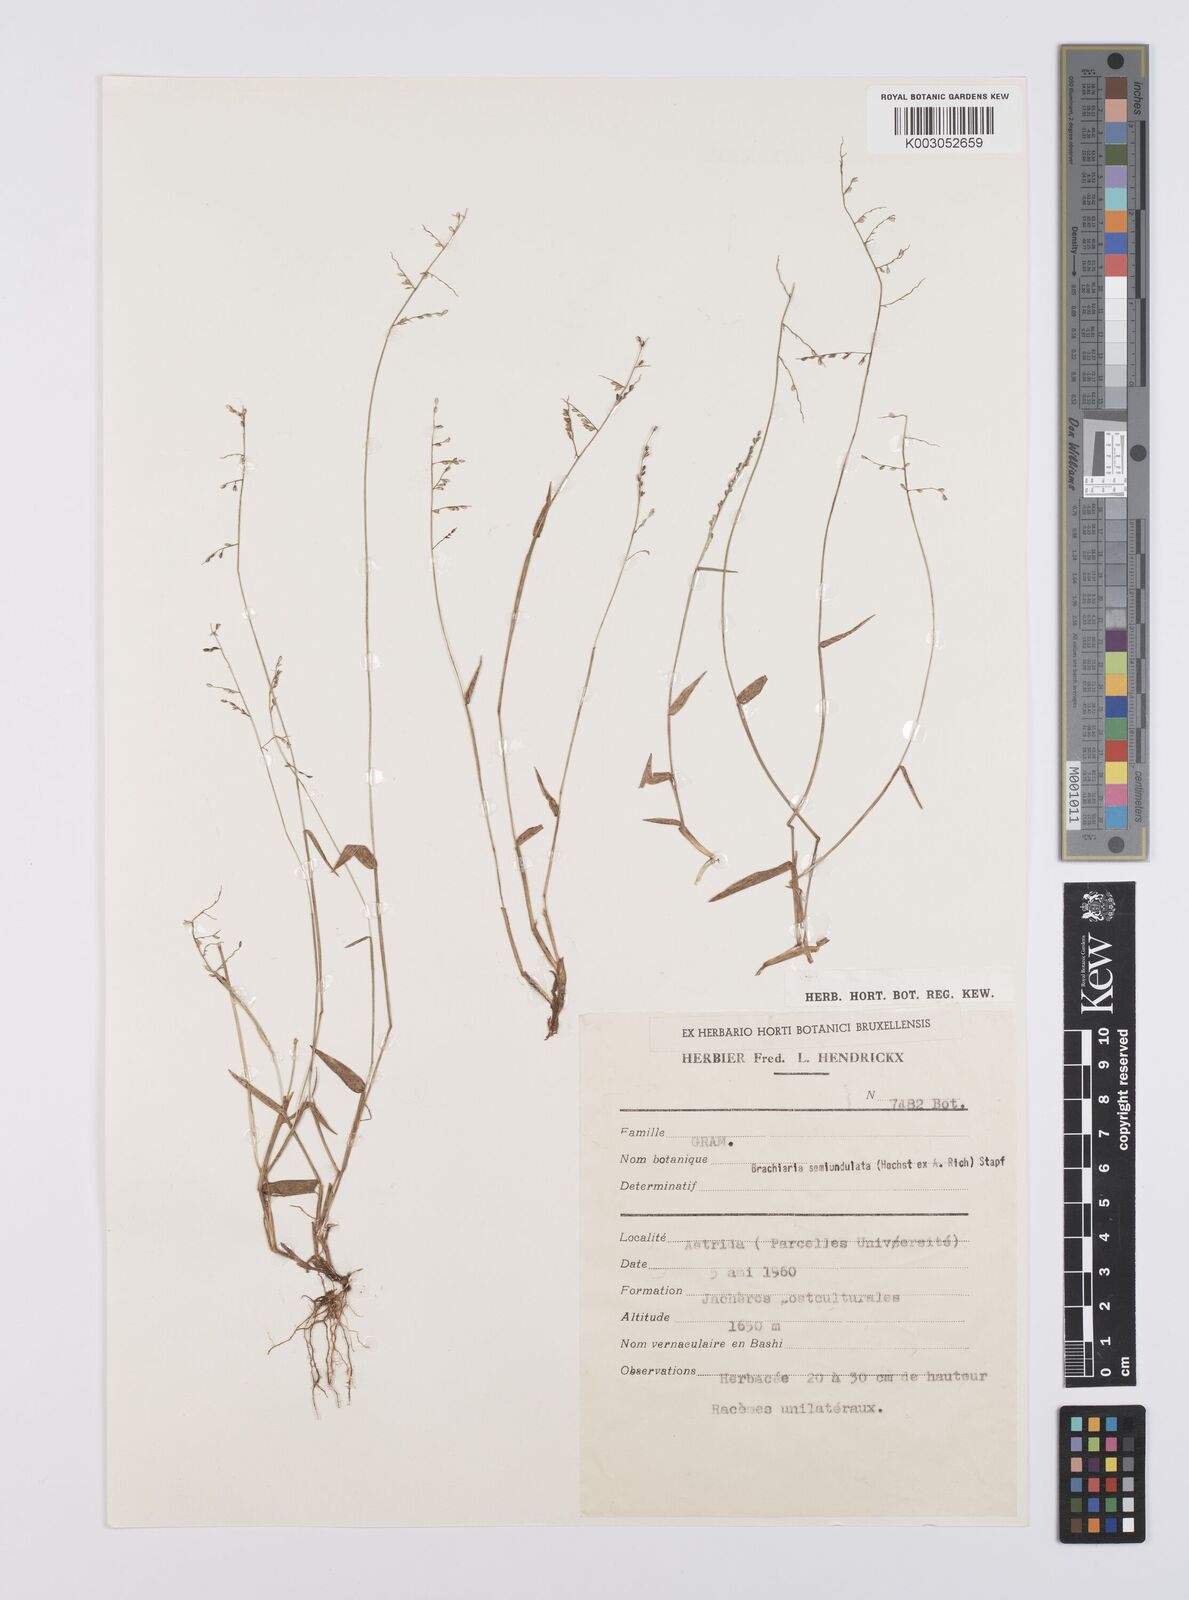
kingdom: Plantae
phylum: Tracheophyta
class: Liliopsida
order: Poales
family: Poaceae
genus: Urochloa
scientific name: Urochloa comata
